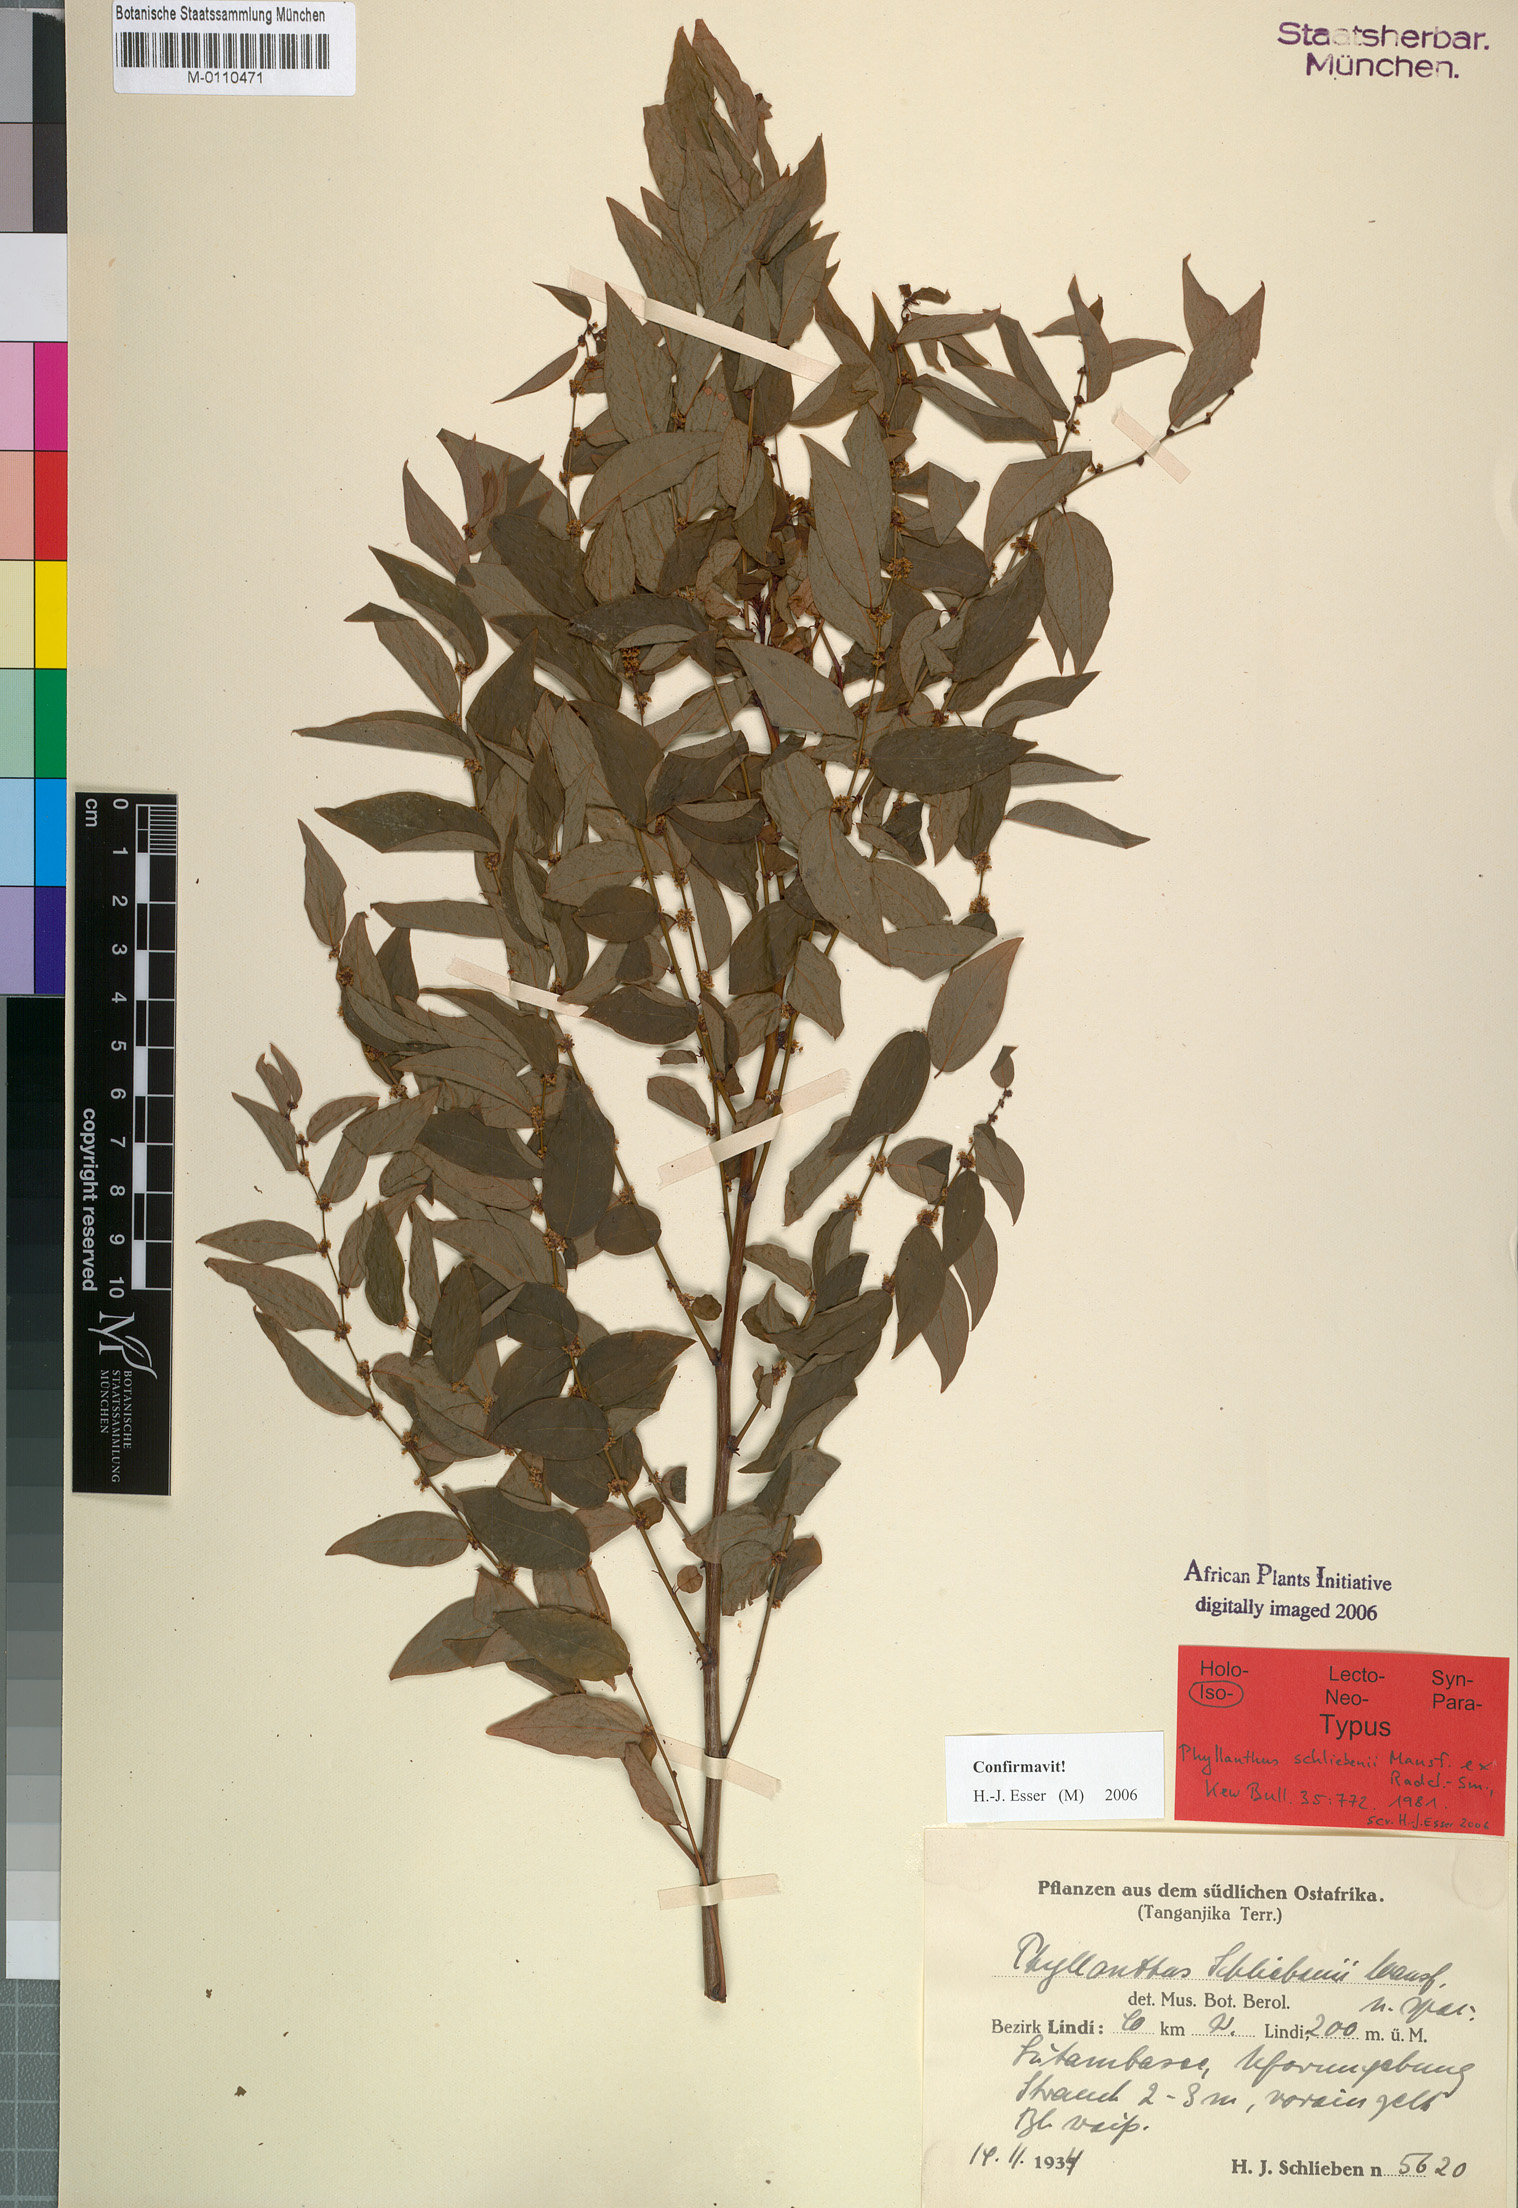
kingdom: Plantae
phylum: Tracheophyta
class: Magnoliopsida
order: Malpighiales
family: Phyllanthaceae
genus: Phyllanthus
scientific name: Phyllanthus schliebenii
